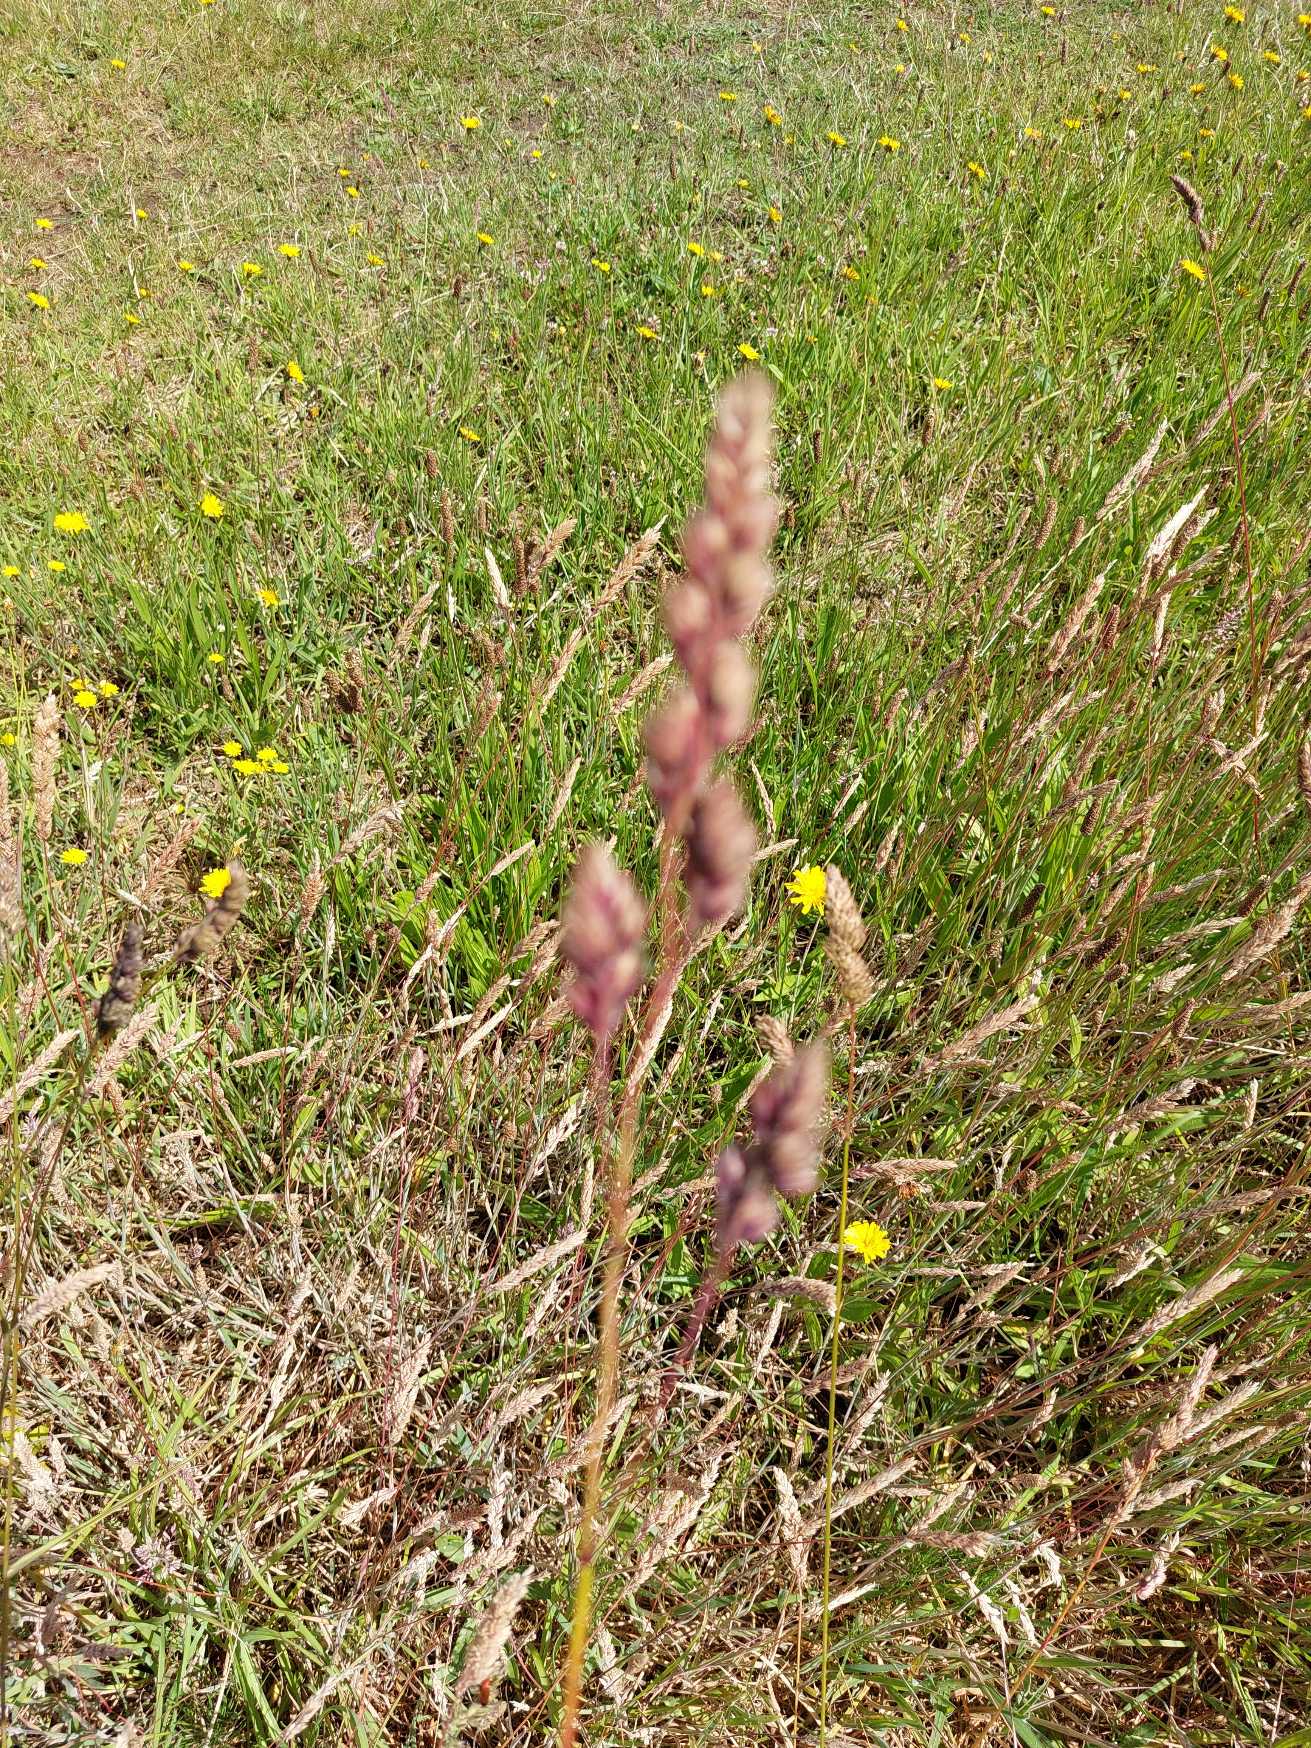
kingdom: Plantae
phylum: Tracheophyta
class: Liliopsida
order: Poales
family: Poaceae
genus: Dactylis
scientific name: Dactylis glomerata
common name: Almindelig hundegræs
